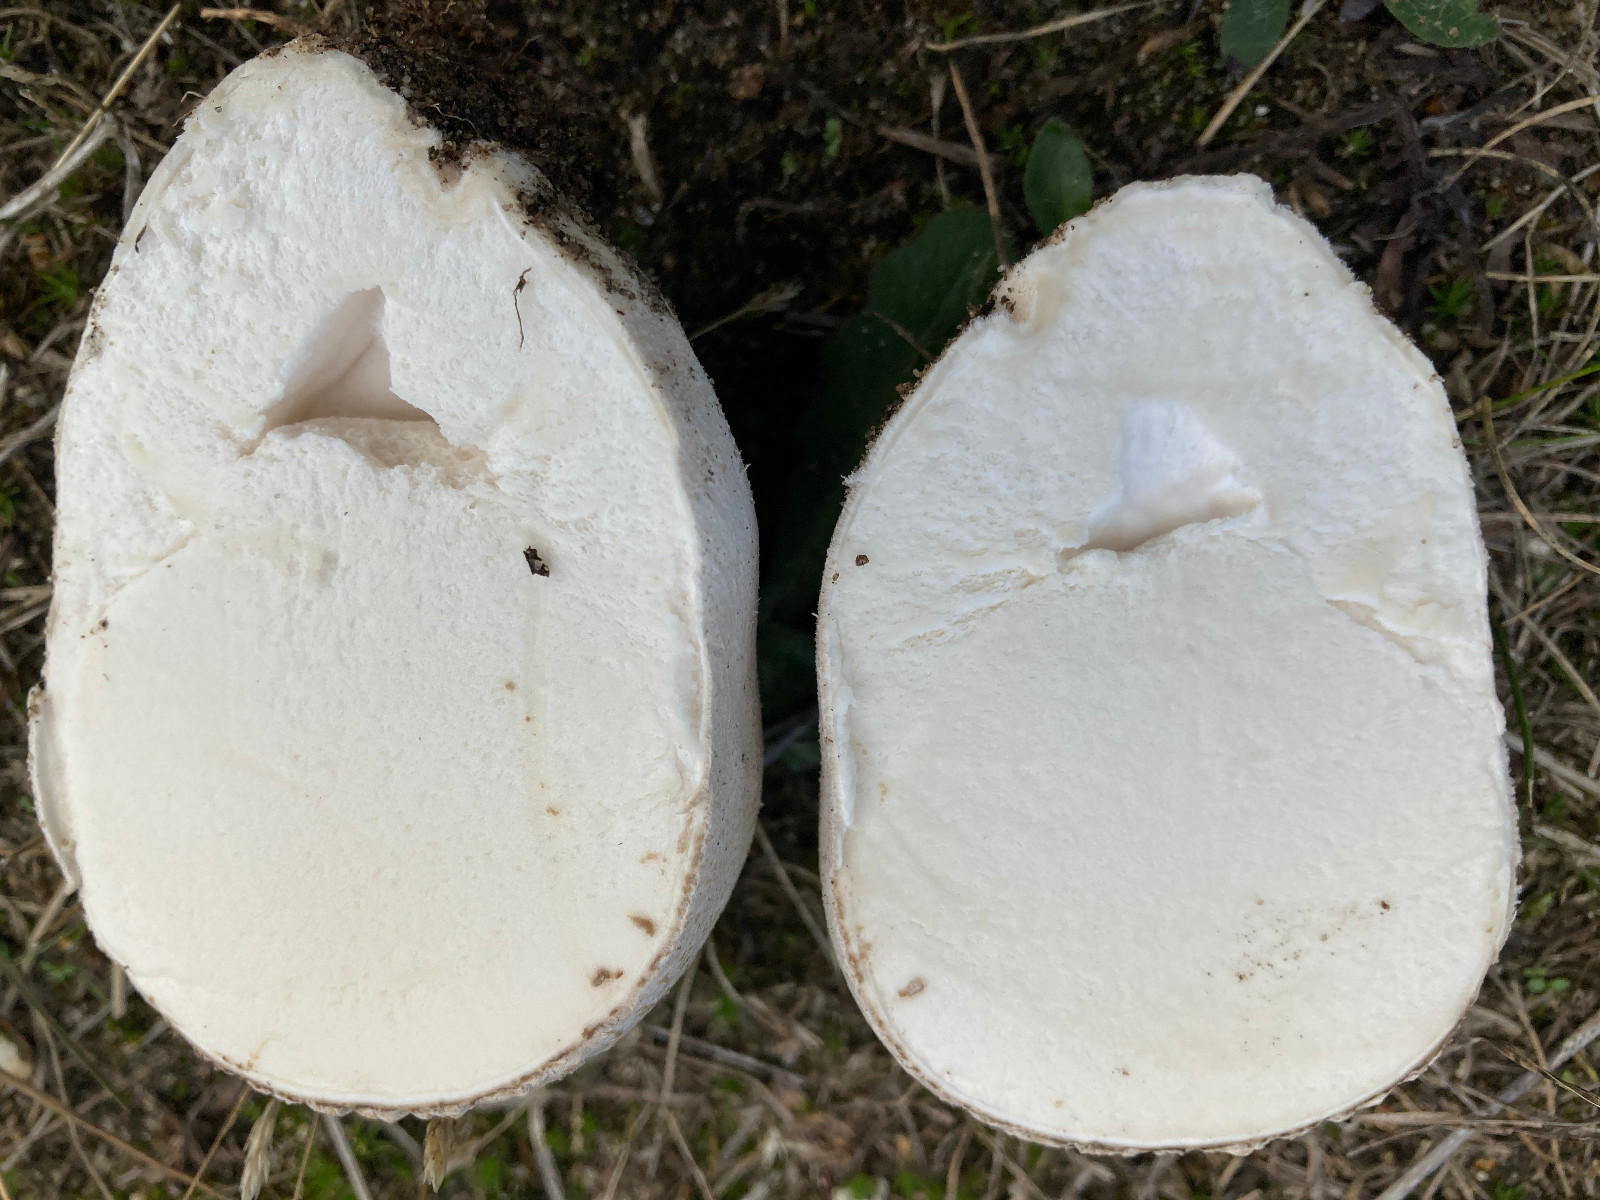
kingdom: Fungi
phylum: Basidiomycota
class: Agaricomycetes
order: Agaricales
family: Lycoperdaceae
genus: Bovistella
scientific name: Bovistella utriformis
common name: skællet støvbold
